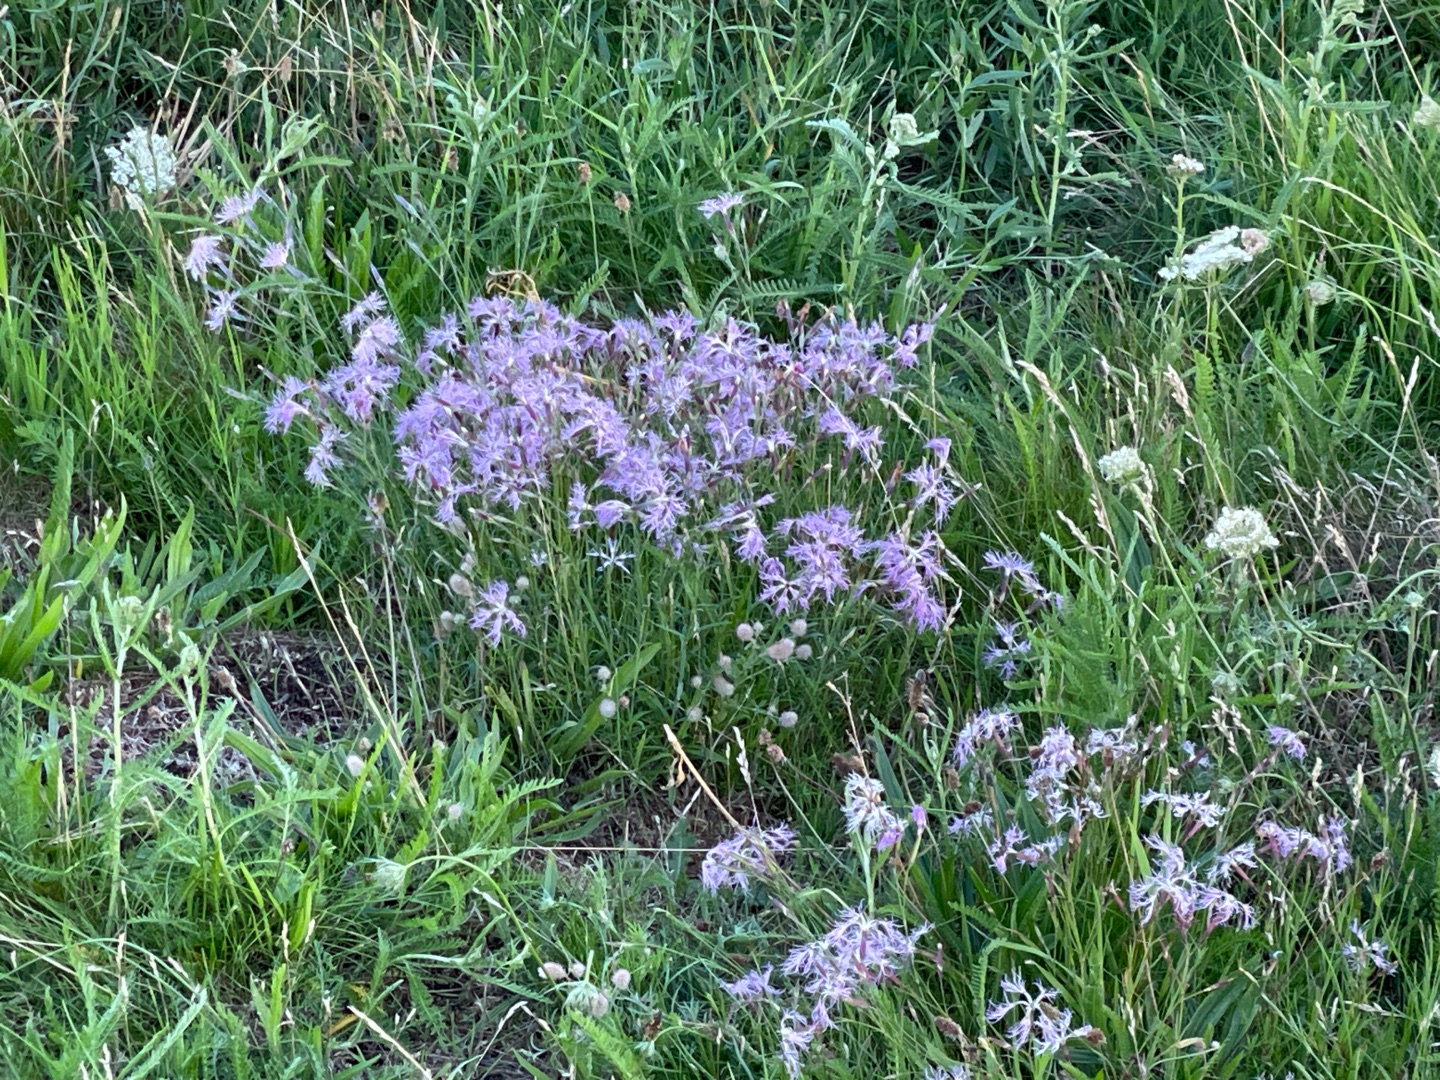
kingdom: Plantae
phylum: Tracheophyta
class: Magnoliopsida
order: Caryophyllales
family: Caryophyllaceae
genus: Dianthus
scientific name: Dianthus superbus
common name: Strand-nellike
